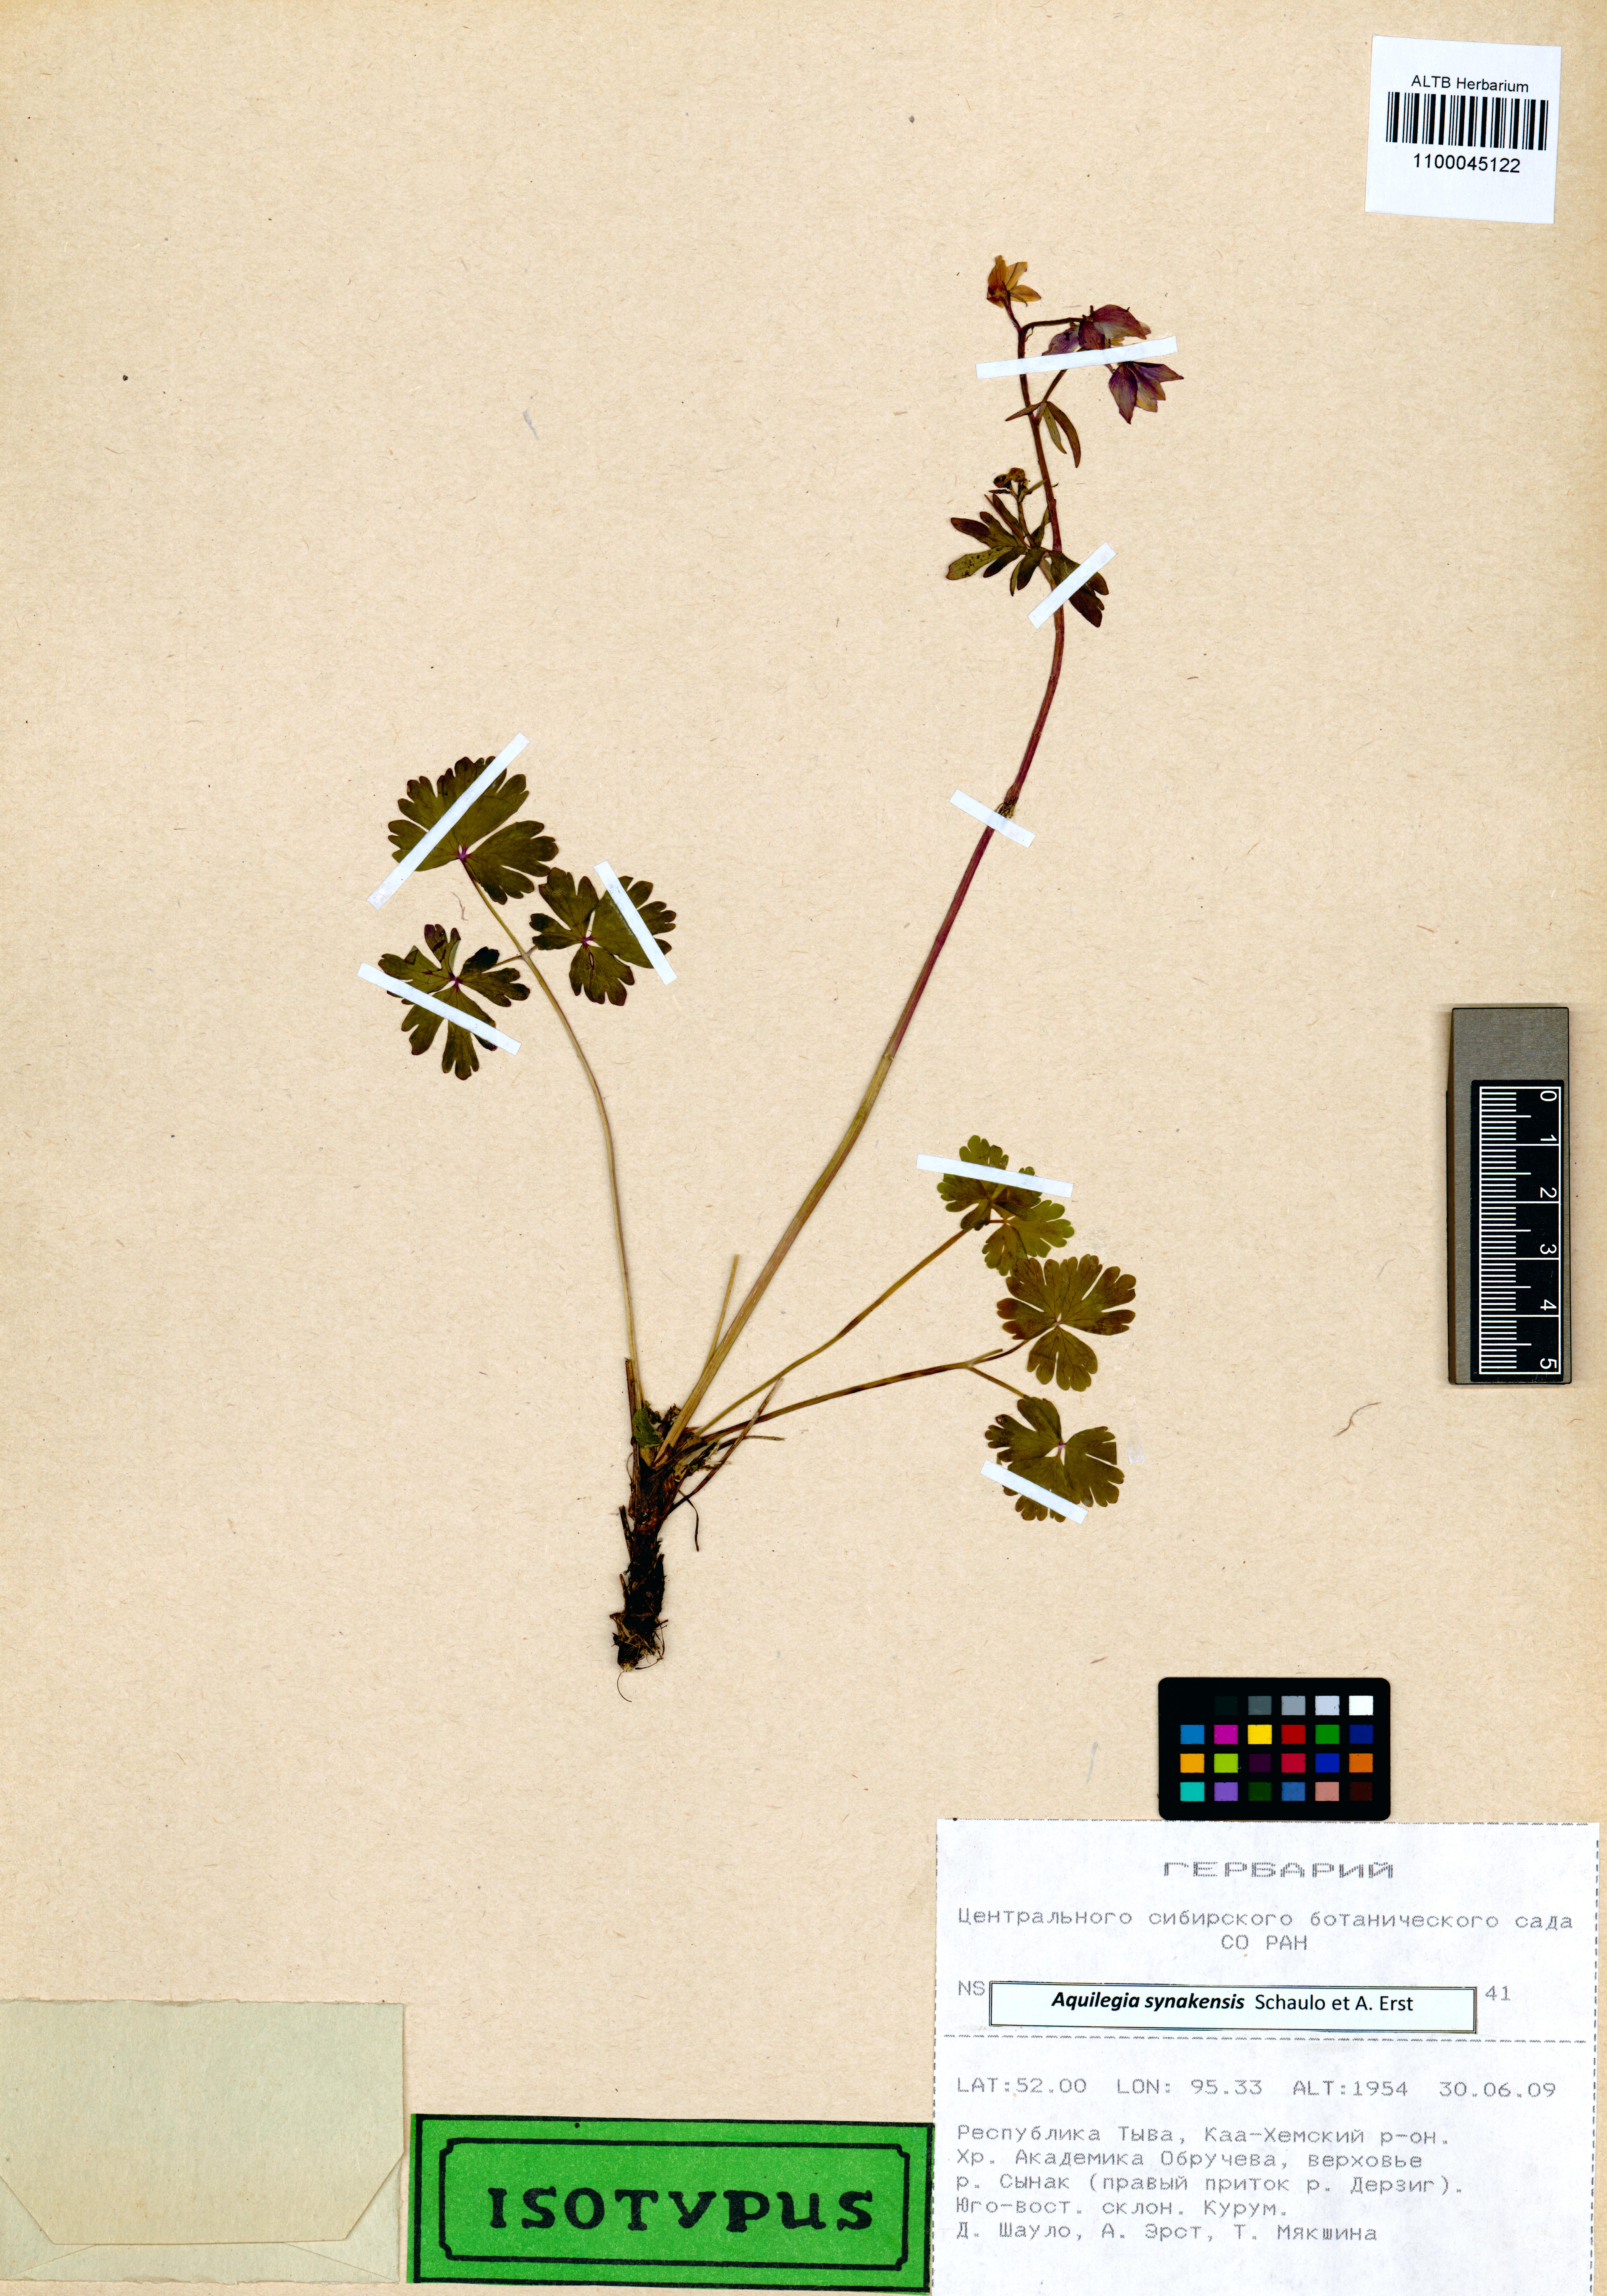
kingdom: Plantae
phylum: Tracheophyta
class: Magnoliopsida
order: Ranunculales
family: Ranunculaceae
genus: Aquilegia
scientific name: Aquilegia synakensis
